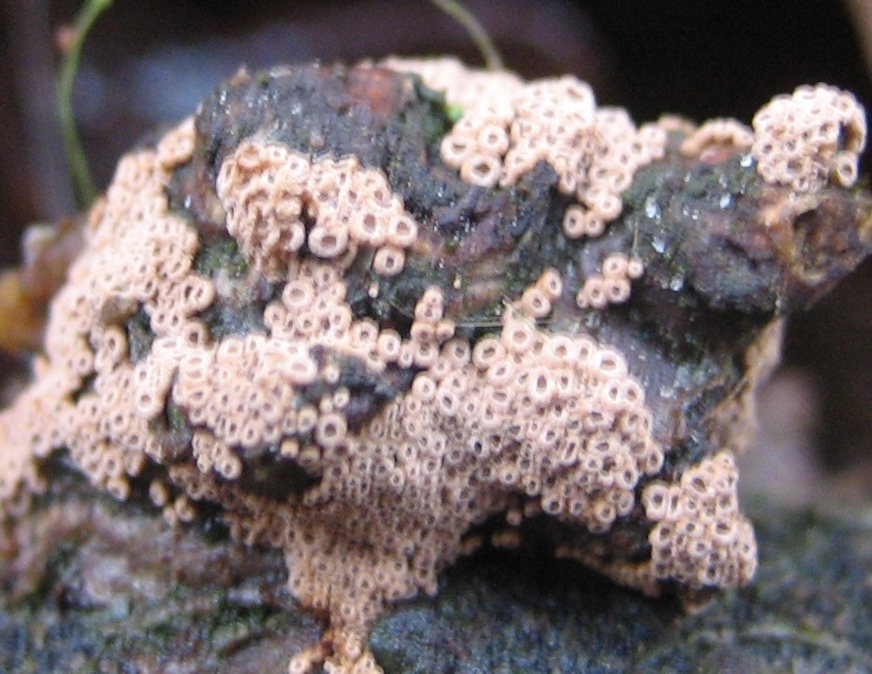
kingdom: Fungi
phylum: Basidiomycota
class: Agaricomycetes
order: Agaricales
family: Niaceae
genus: Merismodes
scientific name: Merismodes
